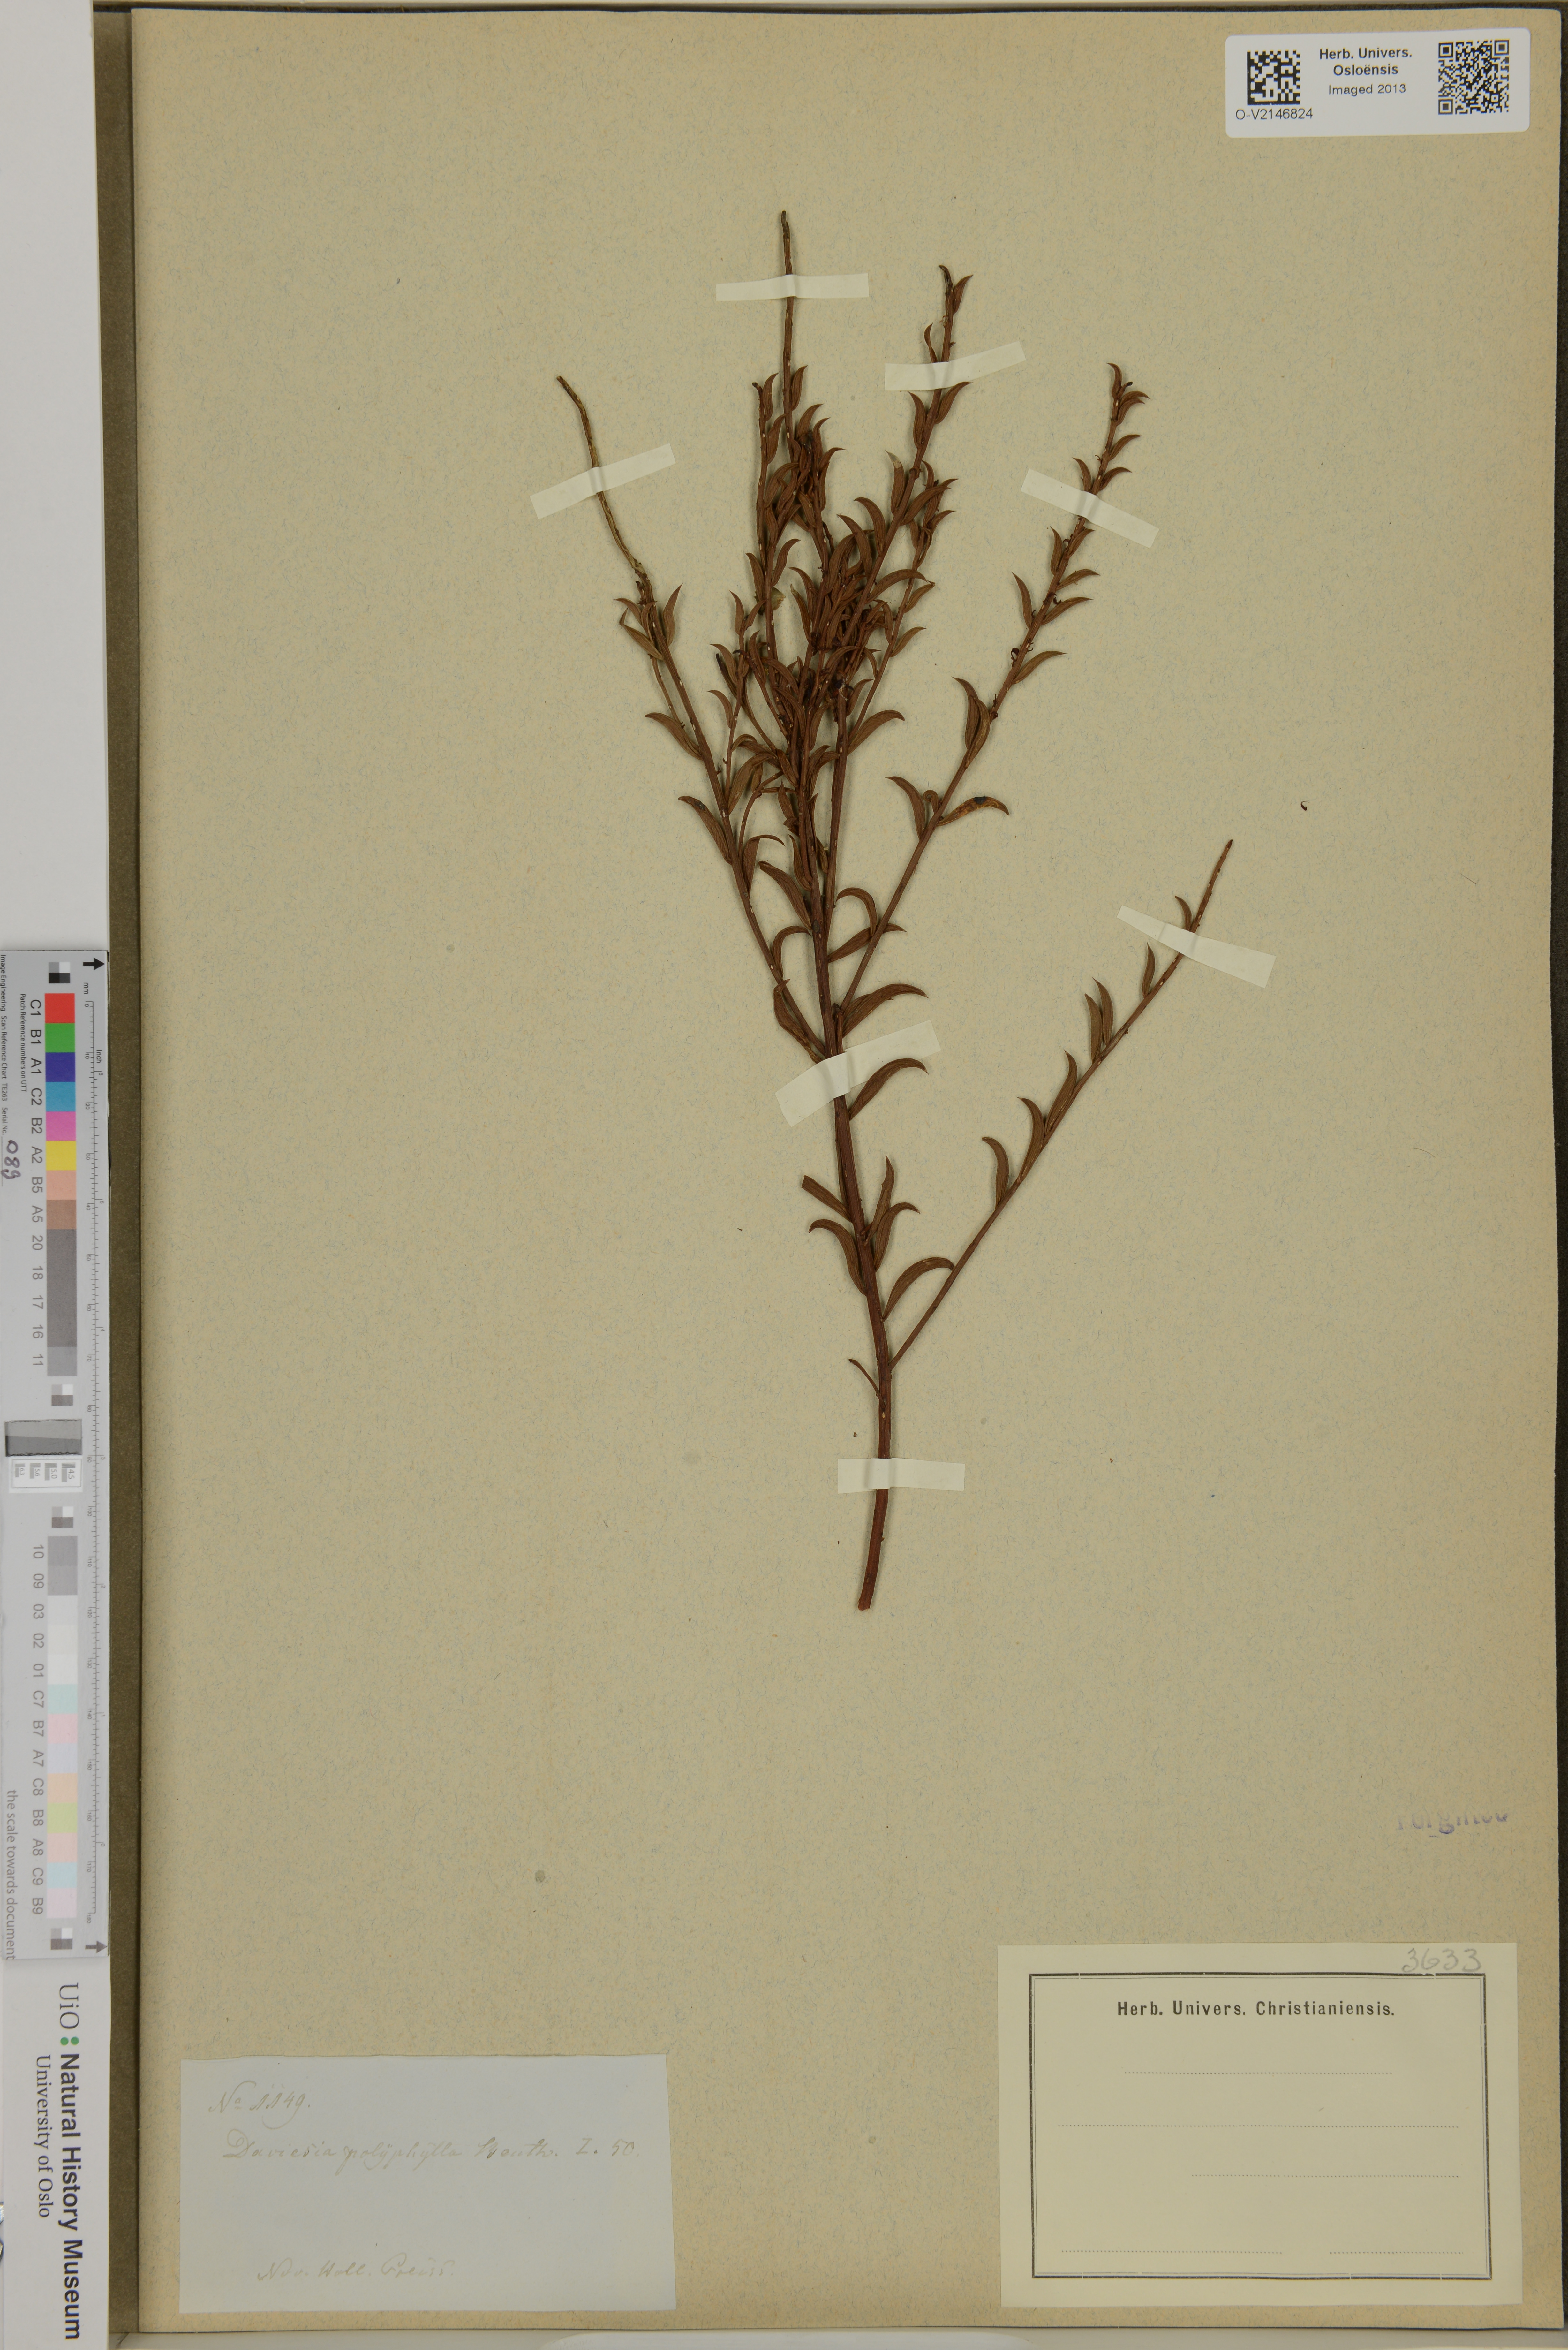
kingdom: Plantae
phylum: Tracheophyta
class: Magnoliopsida
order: Fabales
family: Fabaceae
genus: Daviesia
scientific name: Daviesia polyphylla
